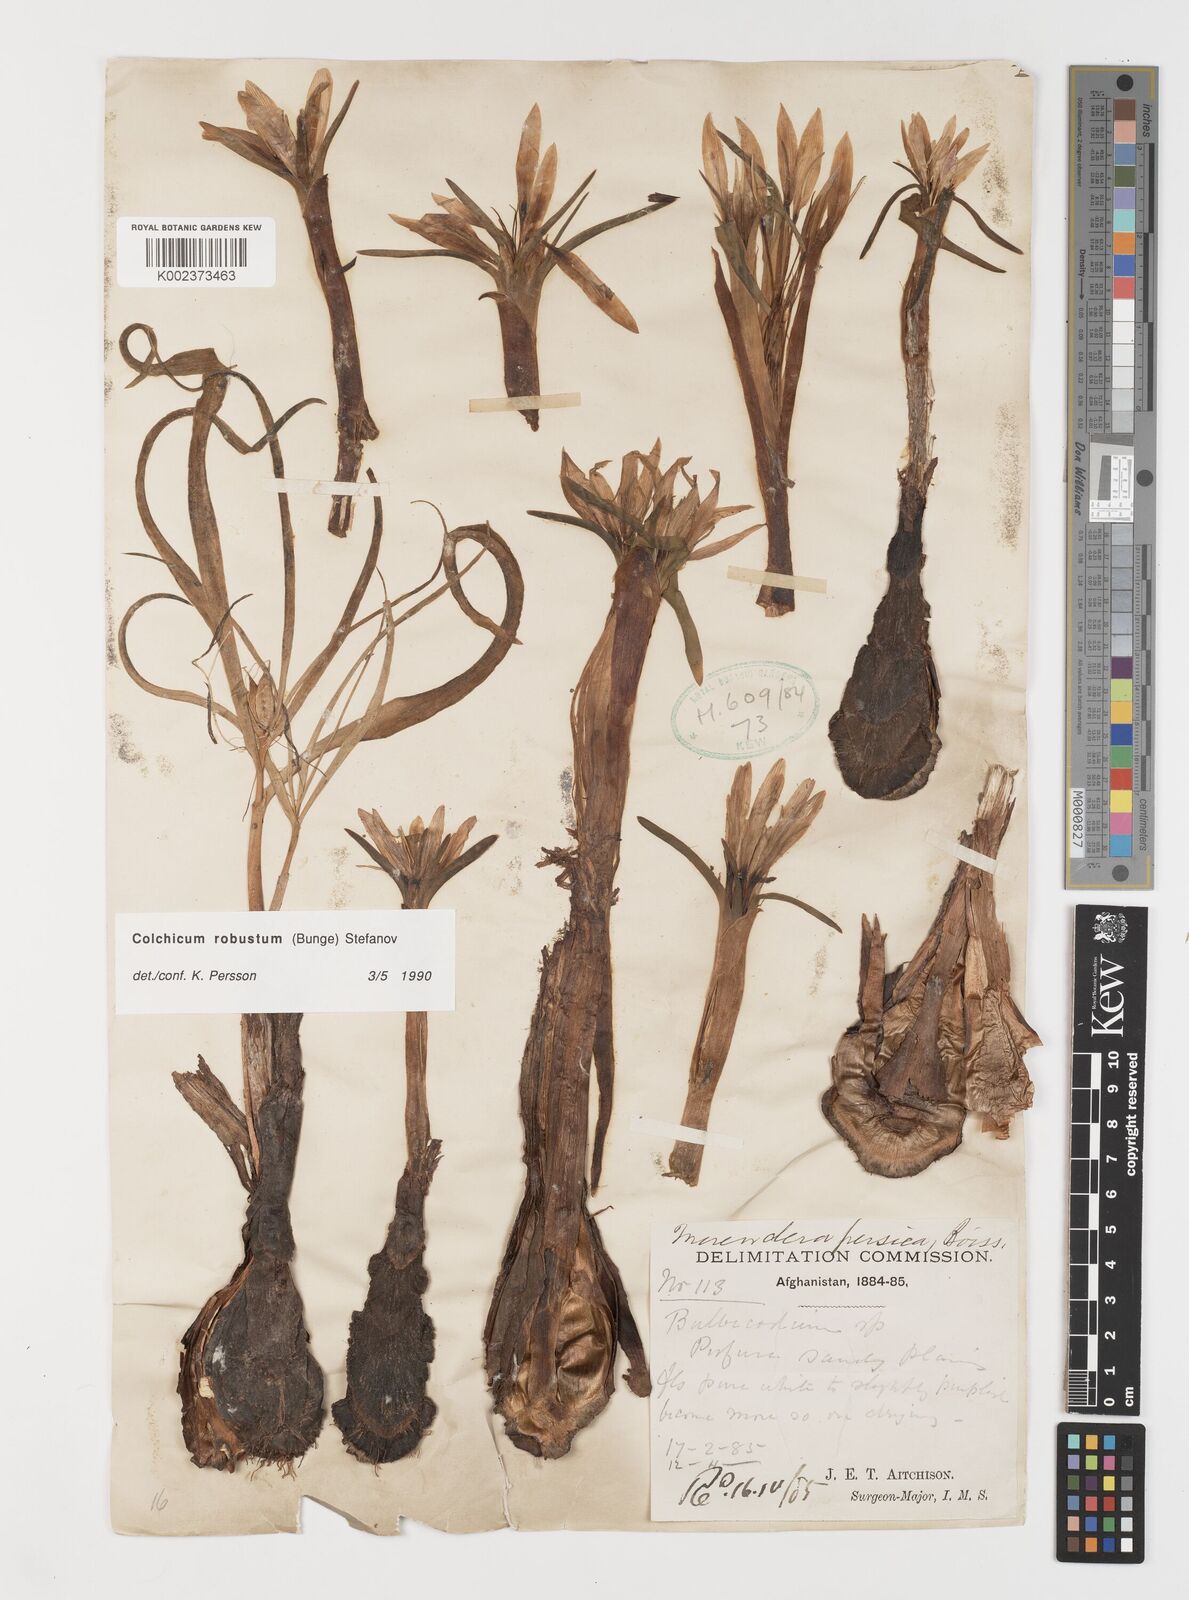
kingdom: Plantae
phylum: Tracheophyta
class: Liliopsida
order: Liliales
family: Colchicaceae
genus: Colchicum
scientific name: Colchicum robustum
